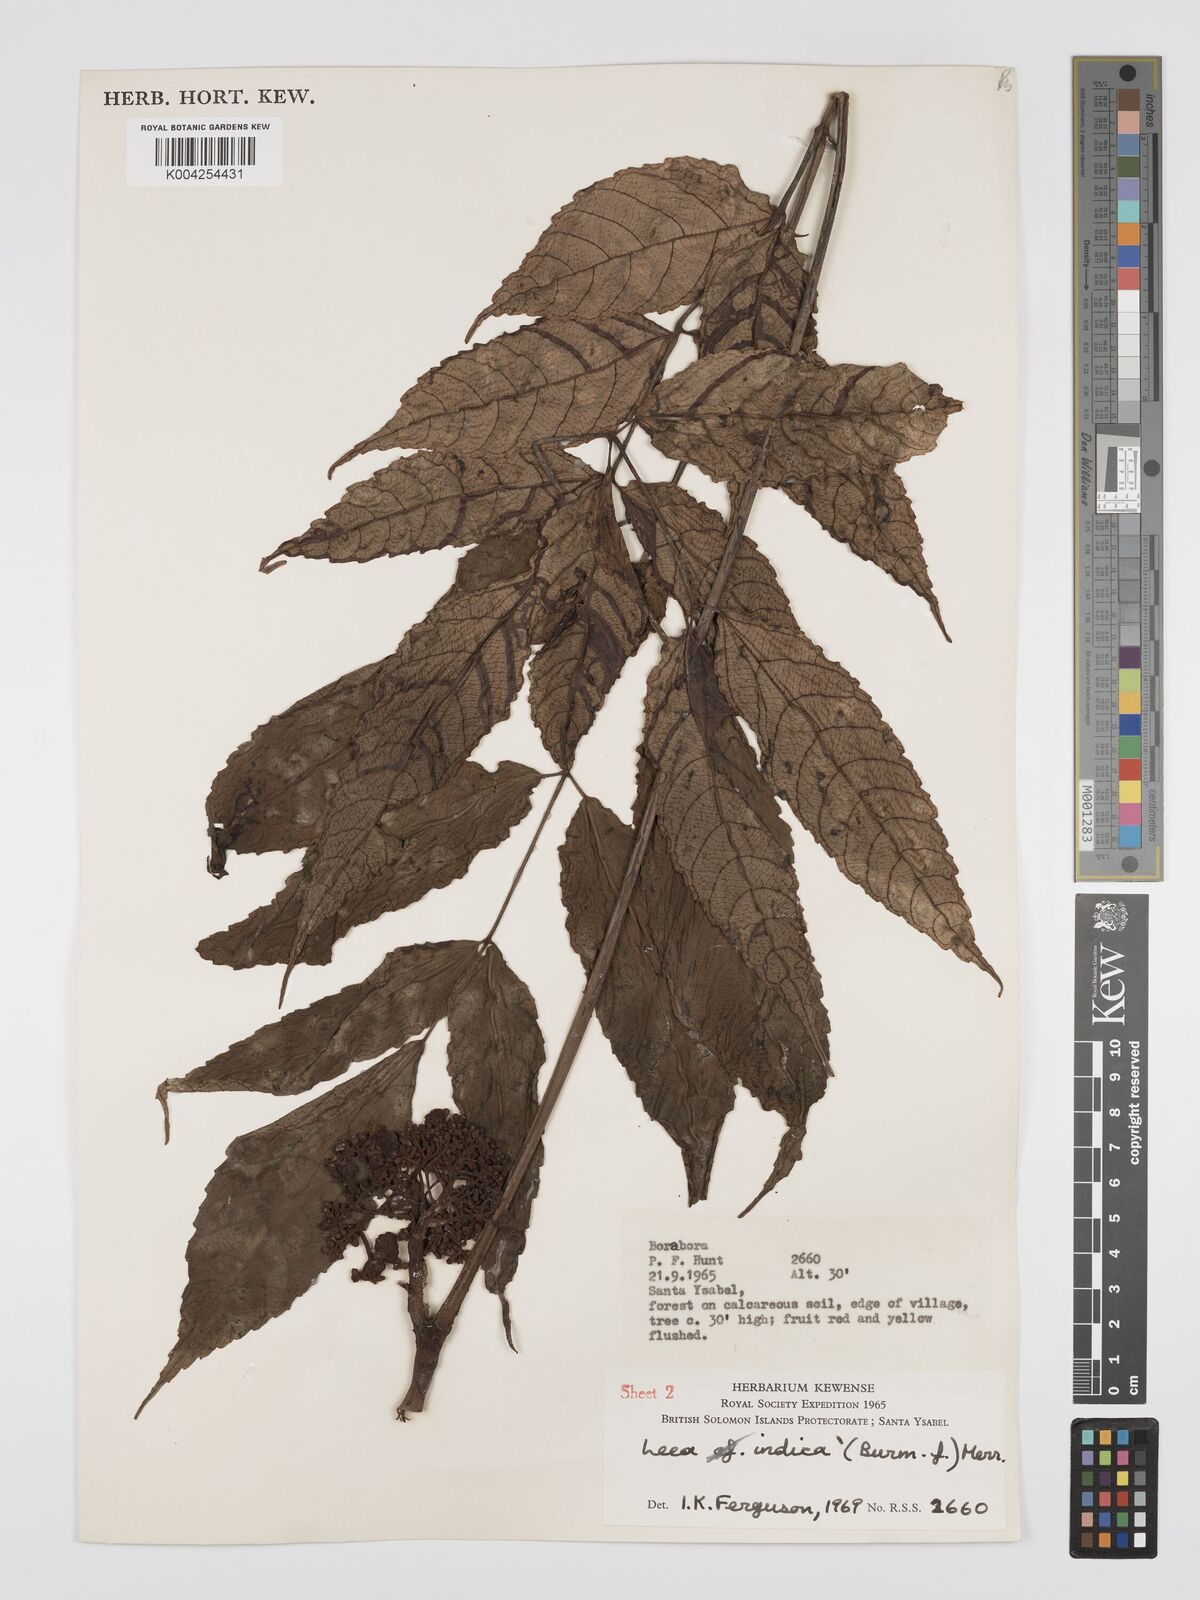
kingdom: Plantae
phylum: Tracheophyta
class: Magnoliopsida
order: Vitales
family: Vitaceae
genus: Leea
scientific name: Leea tetramera
